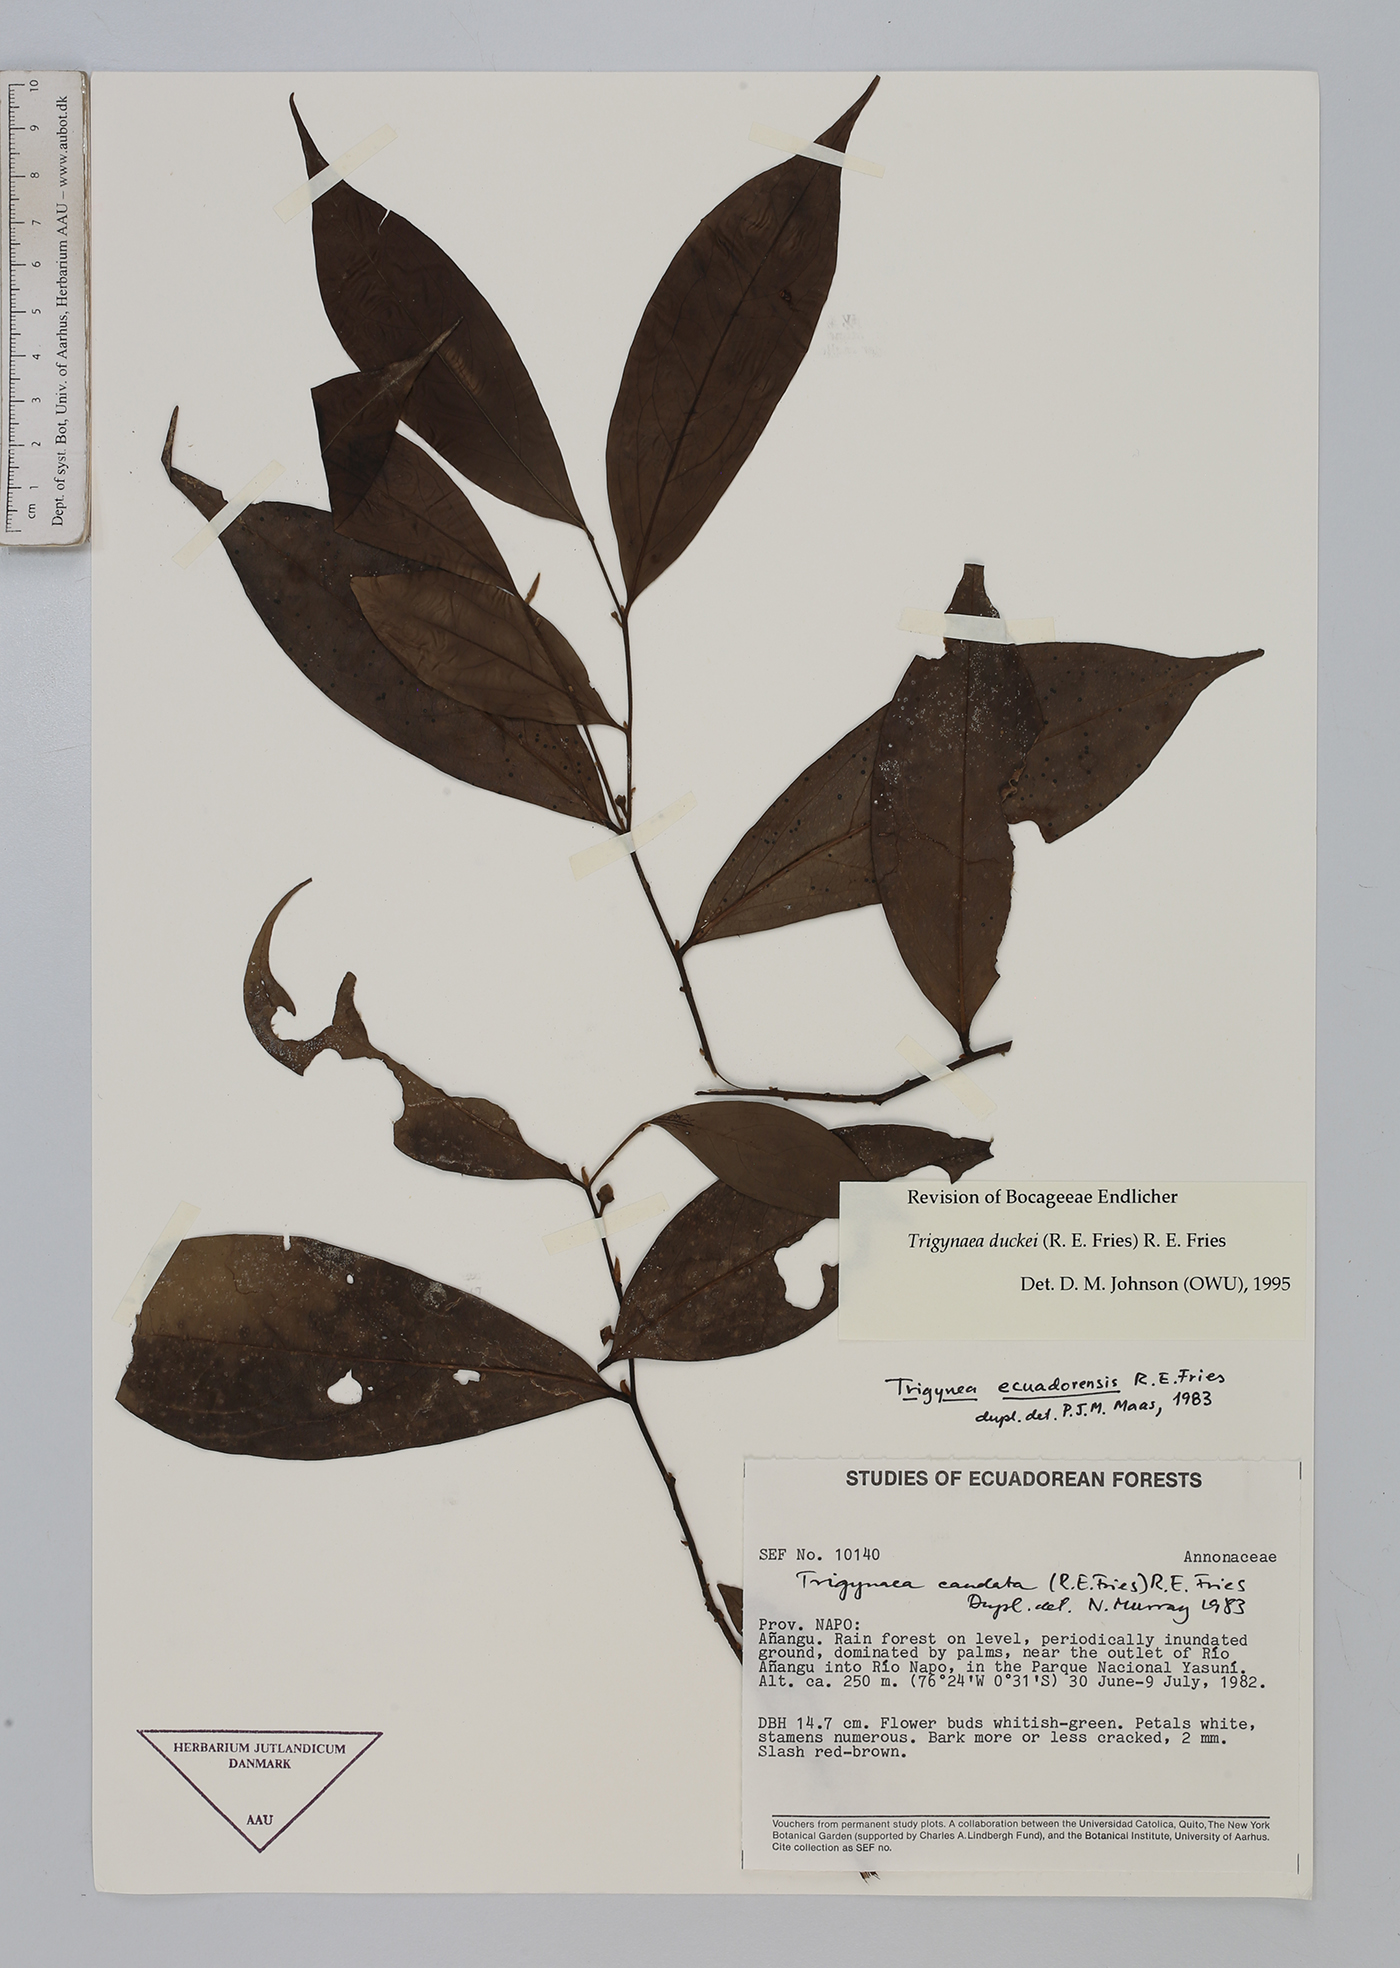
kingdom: Plantae
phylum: Tracheophyta
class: Magnoliopsida
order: Magnoliales
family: Annonaceae
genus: Trigynaea
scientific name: Trigynaea duckei
